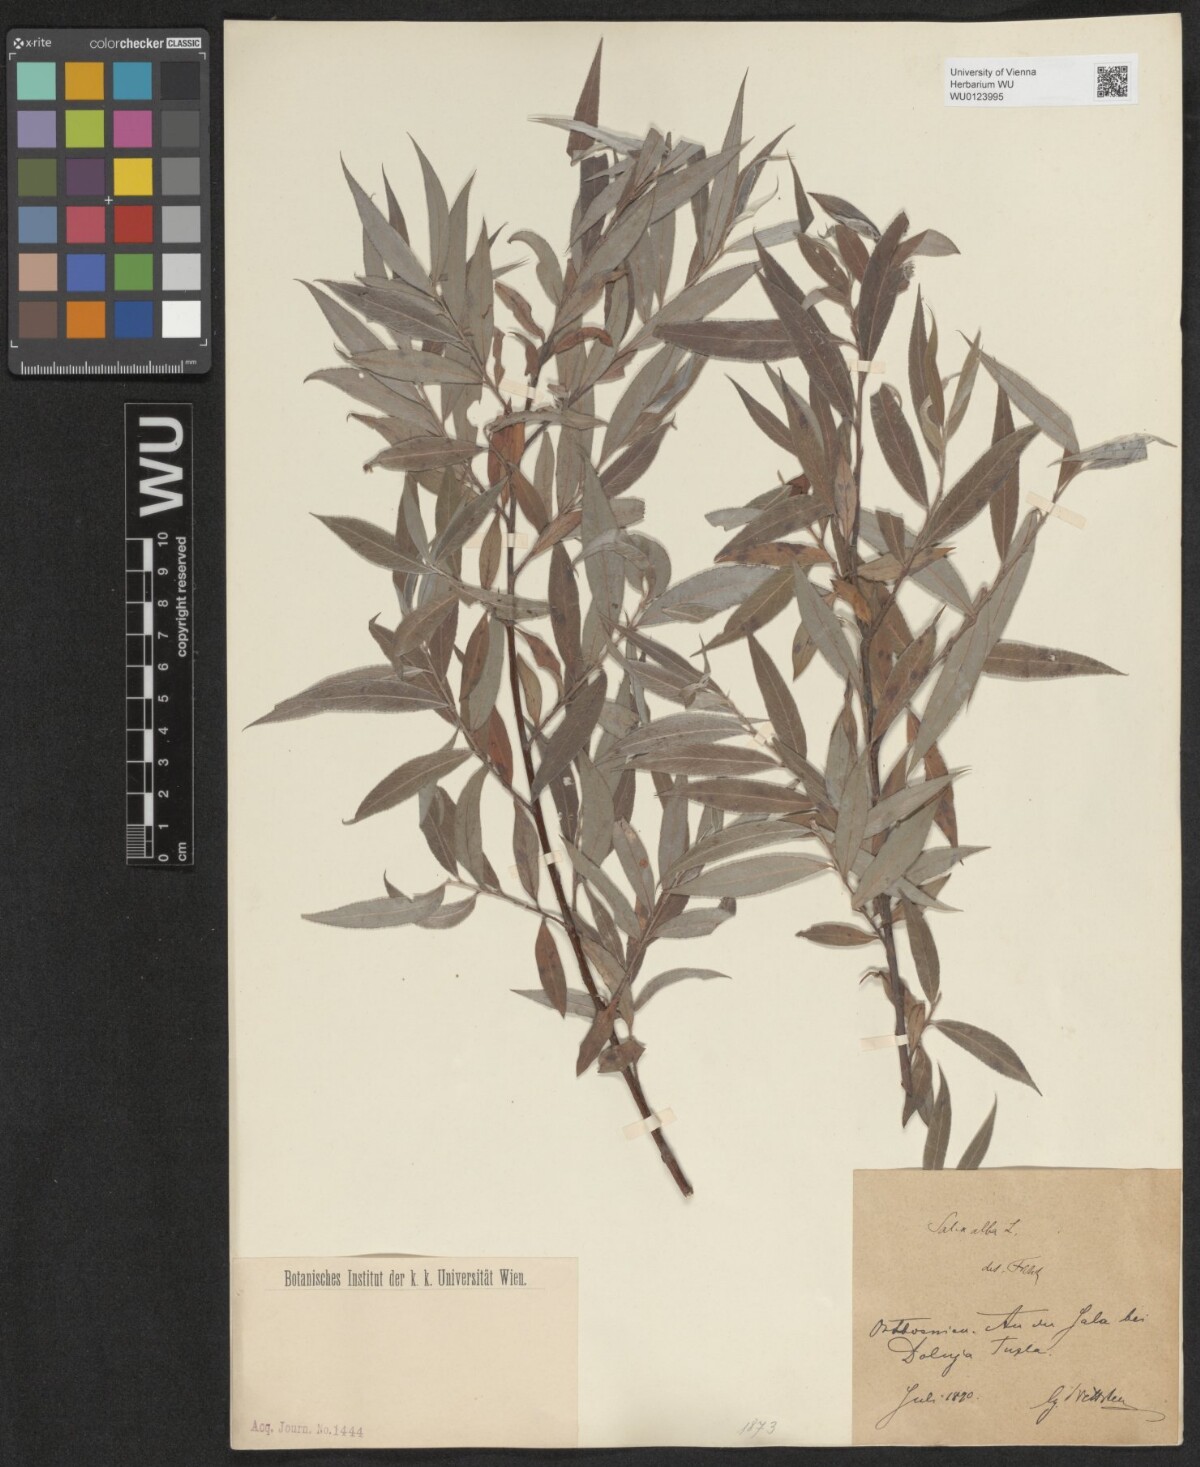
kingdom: Plantae
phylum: Tracheophyta
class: Magnoliopsida
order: Malpighiales
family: Salicaceae
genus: Salix
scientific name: Salix alba
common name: White willow
